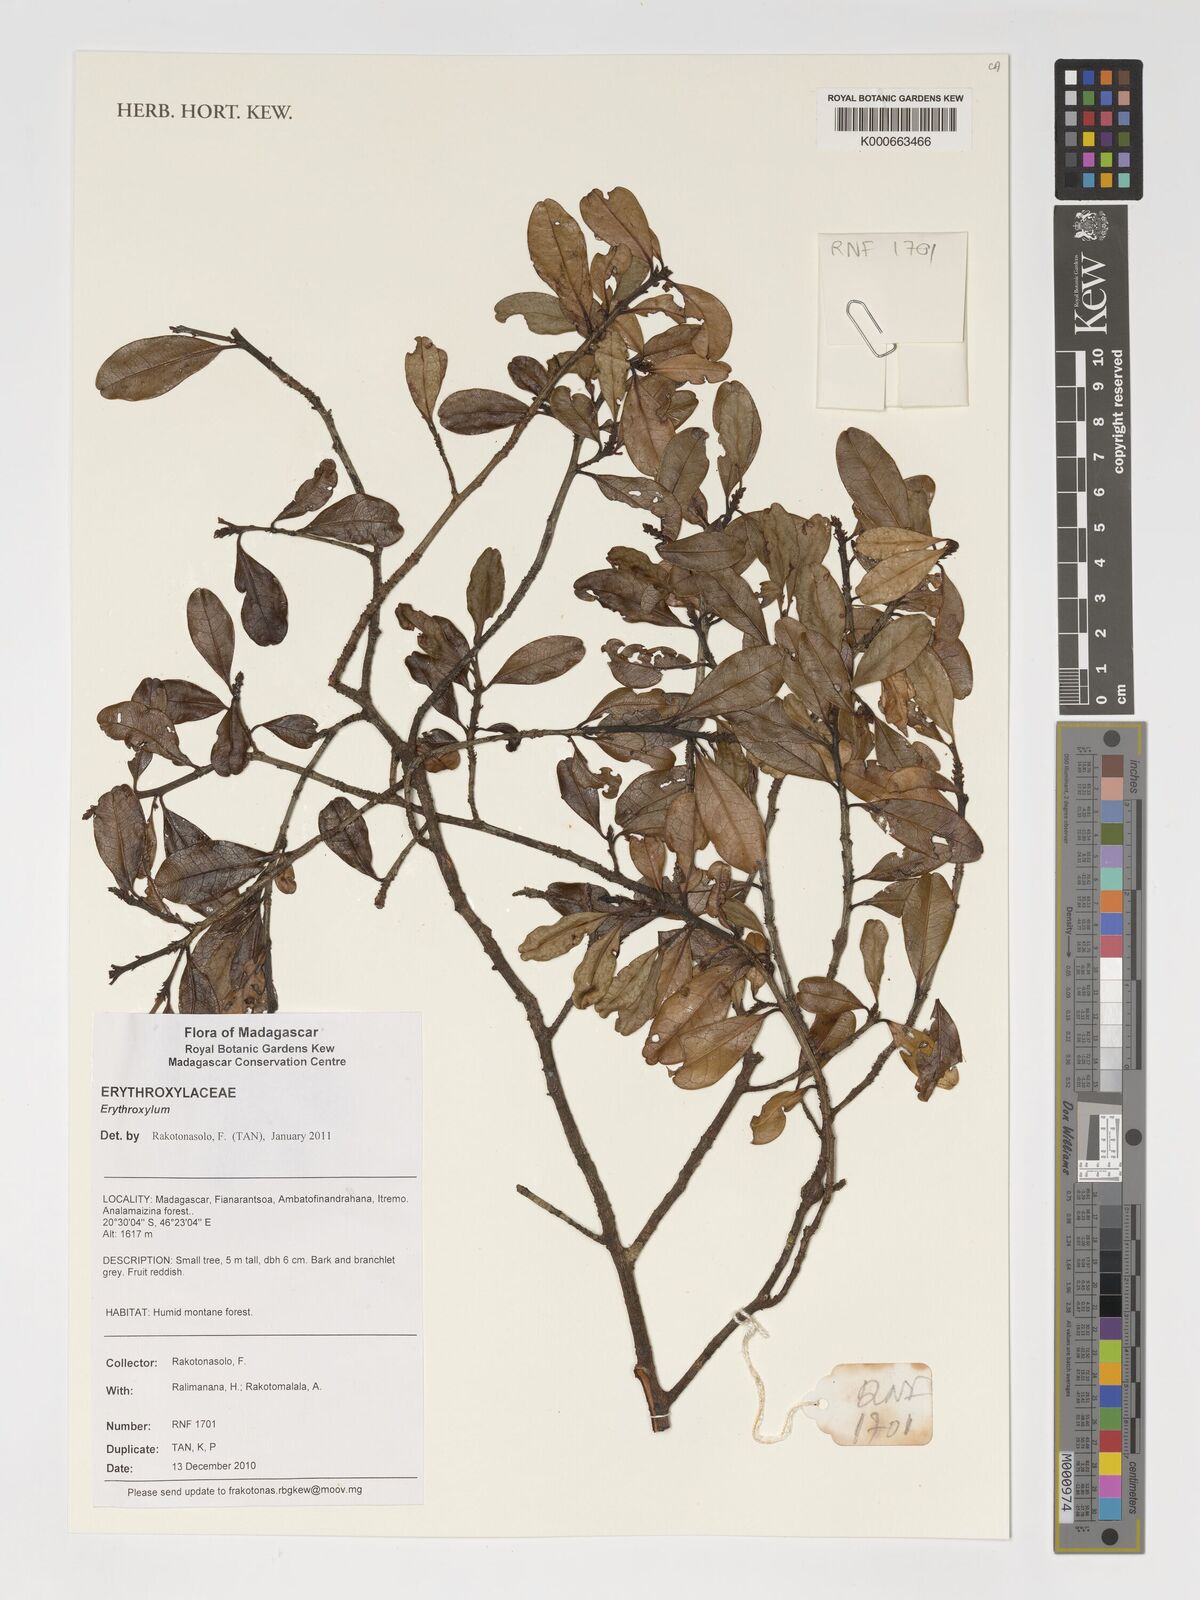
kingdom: Plantae
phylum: Tracheophyta
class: Magnoliopsida
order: Malpighiales
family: Erythroxylaceae
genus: Erythroxylum
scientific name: Erythroxylum
